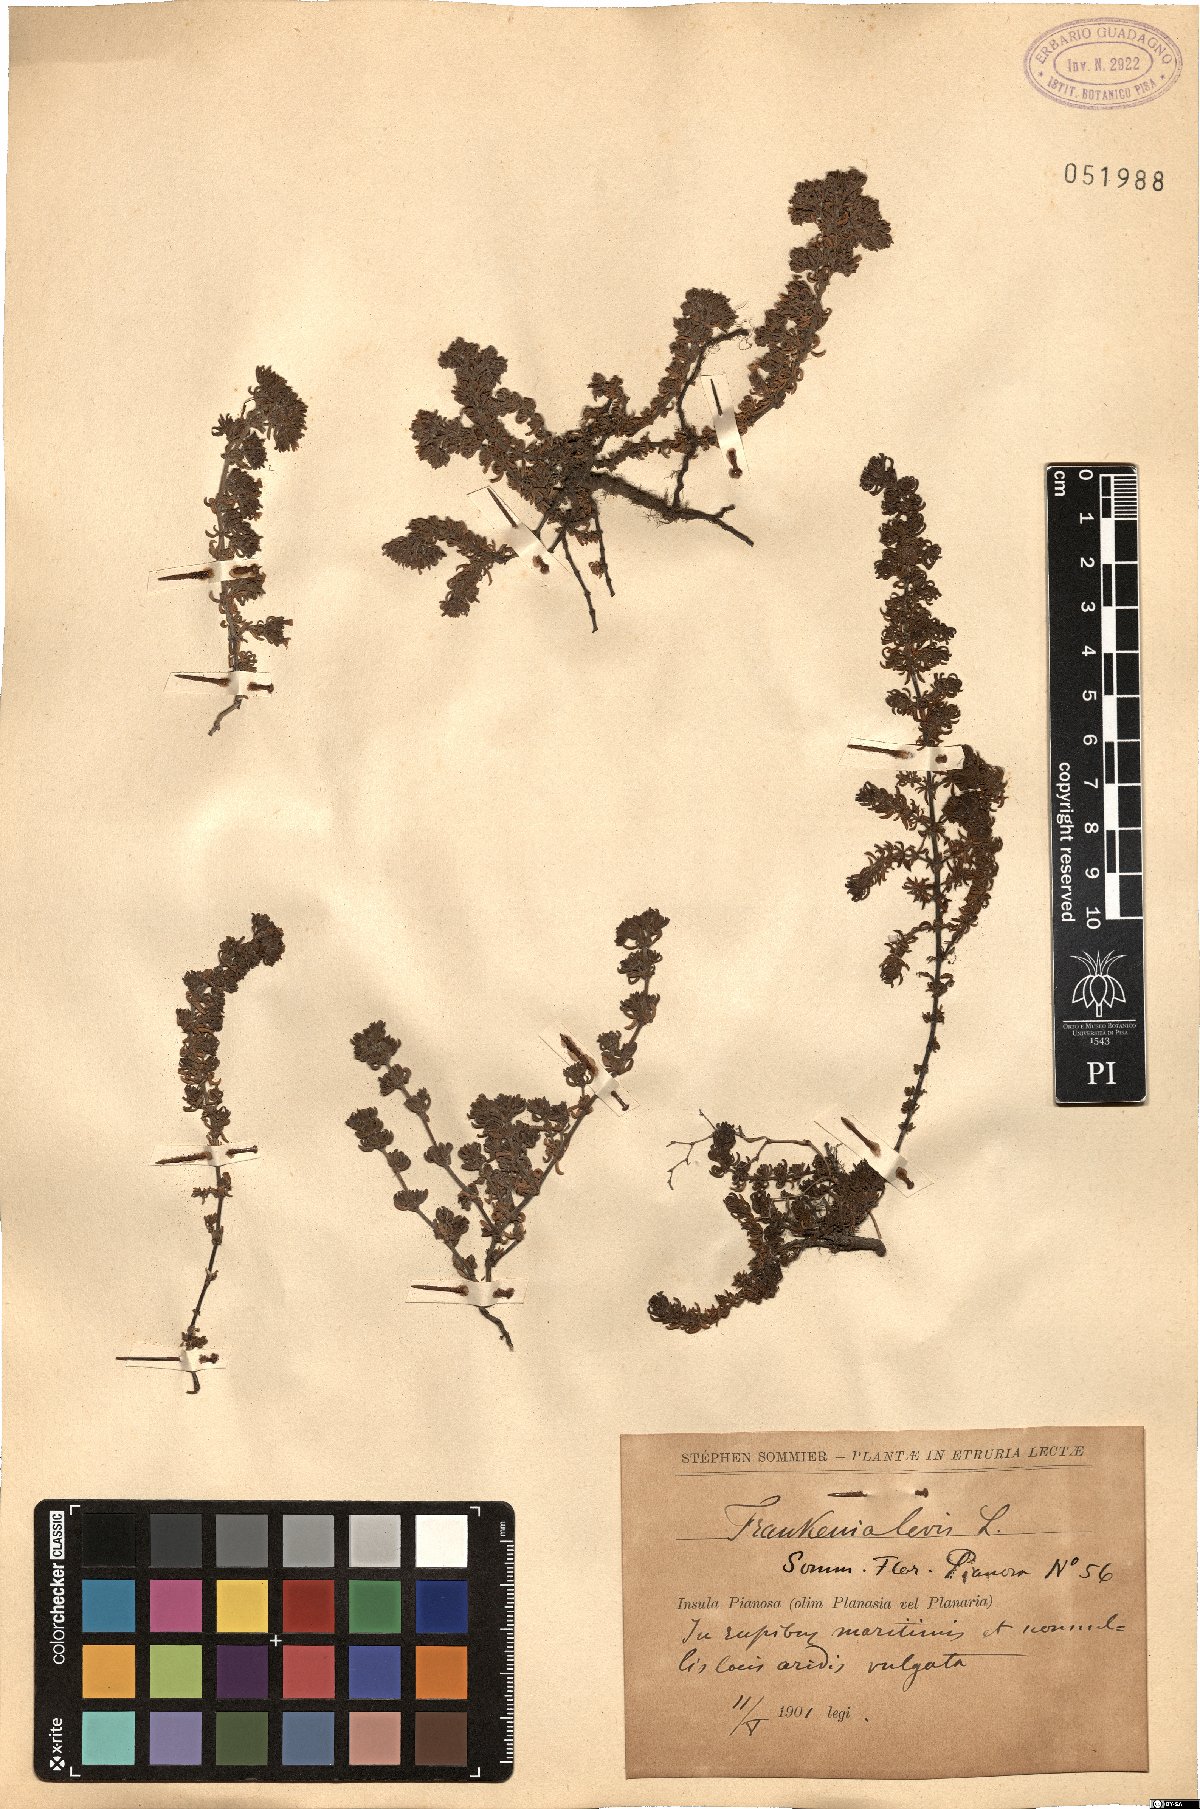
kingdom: Plantae
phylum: Tracheophyta
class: Magnoliopsida
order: Caryophyllales
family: Frankeniaceae
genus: Frankenia
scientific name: Frankenia laevis
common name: Sea-heath
